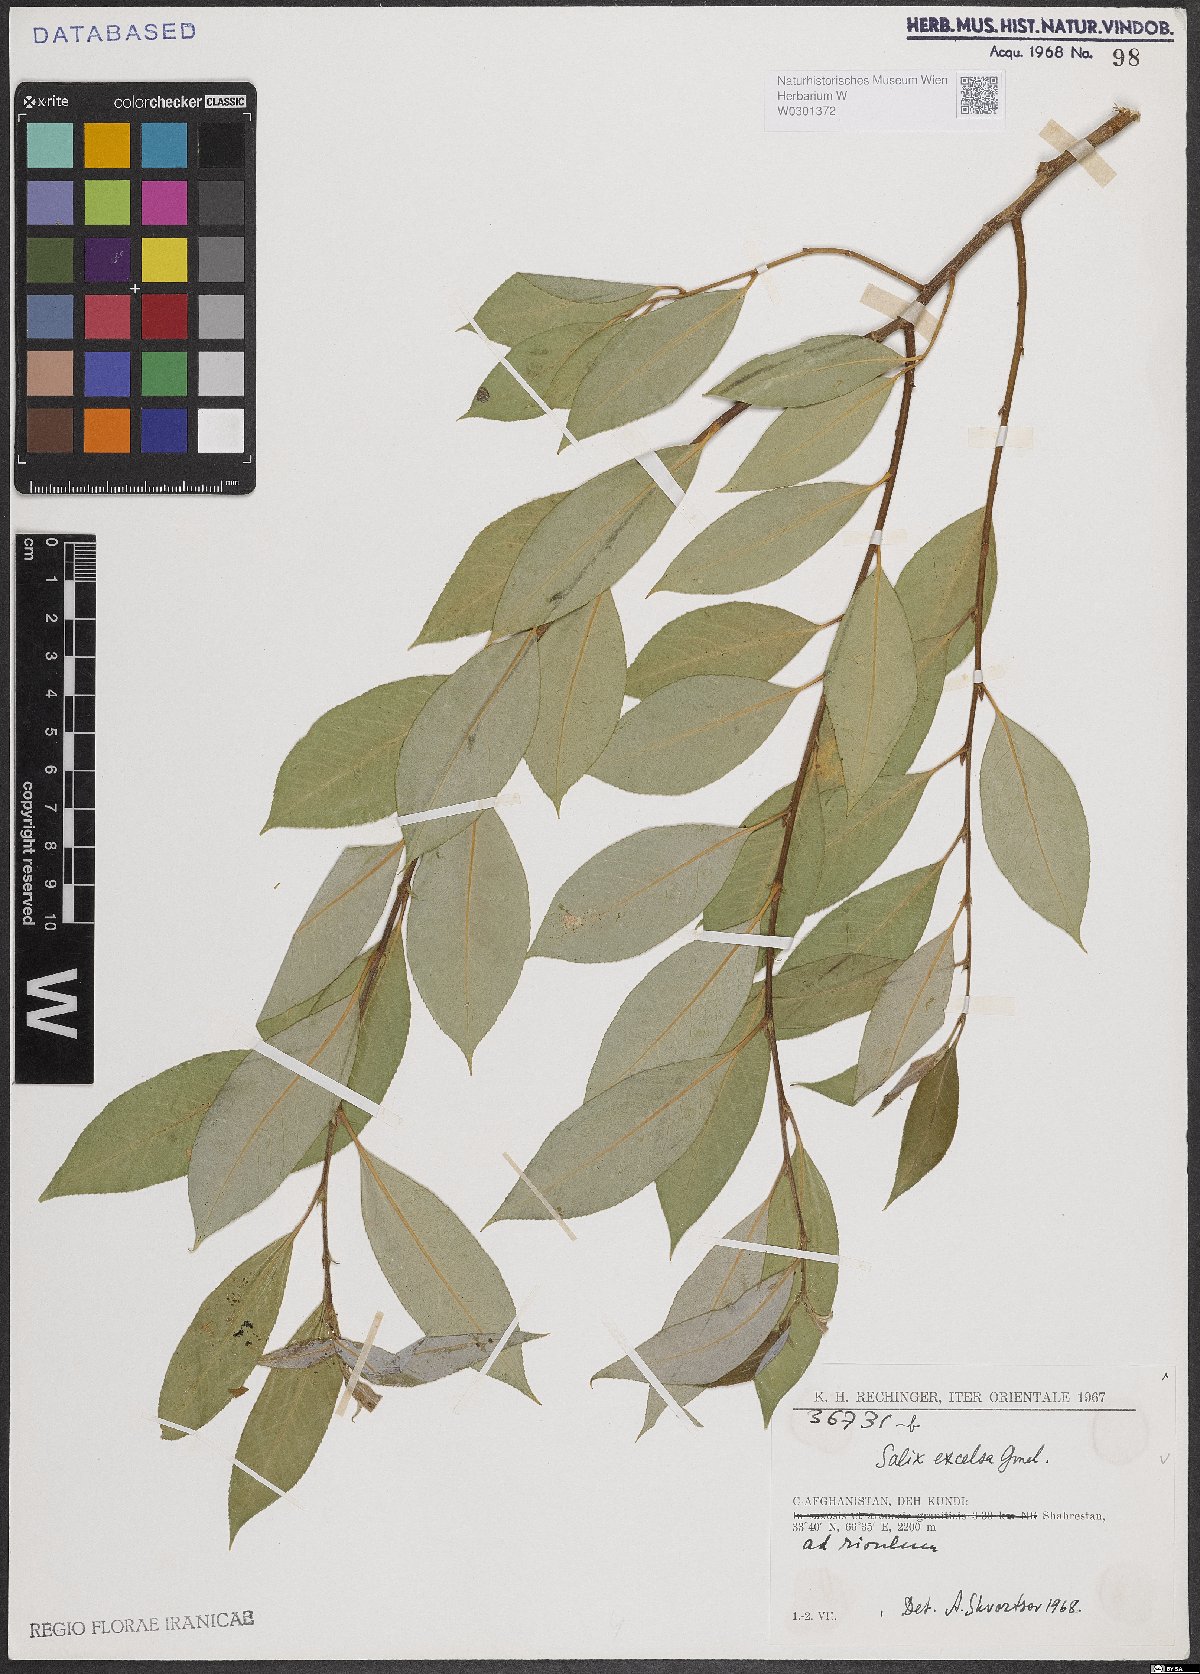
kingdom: Plantae
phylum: Tracheophyta
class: Magnoliopsida
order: Malpighiales
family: Salicaceae
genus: Salix
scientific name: Salix excelsa
